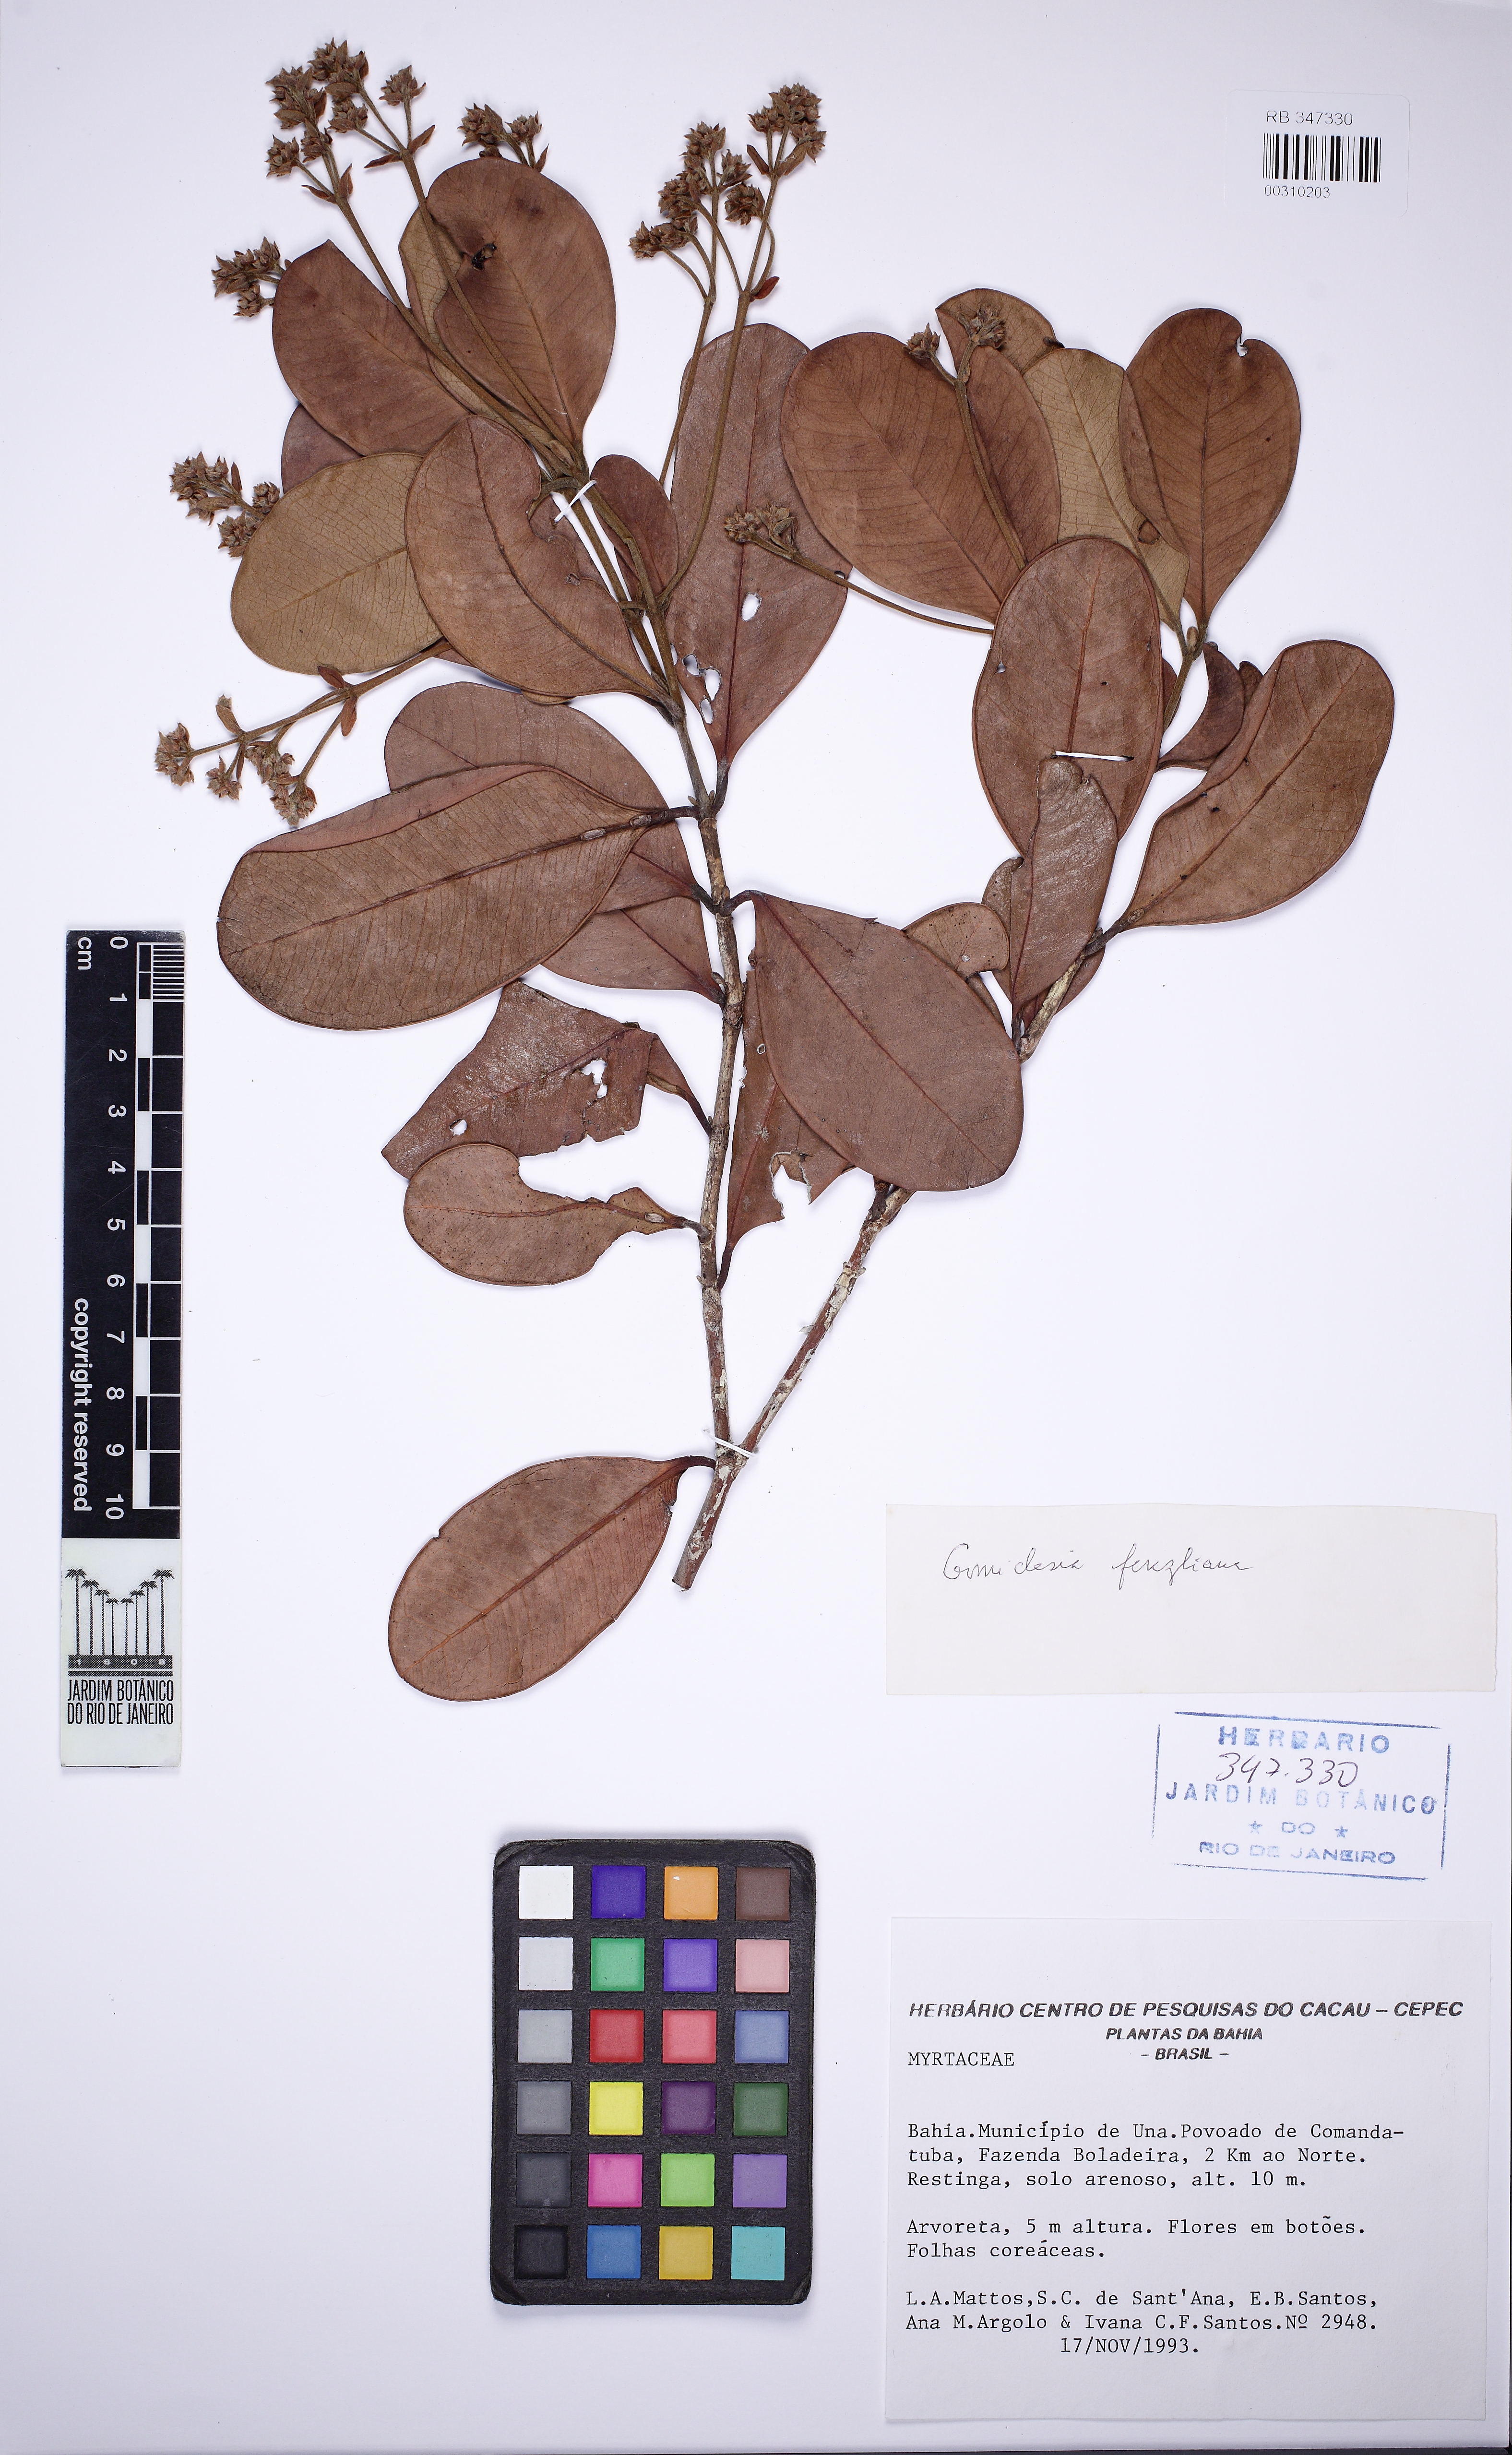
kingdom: Plantae
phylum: Tracheophyta
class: Magnoliopsida
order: Myrtales
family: Myrtaceae
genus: Myrcia
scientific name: Myrcia trichantha
